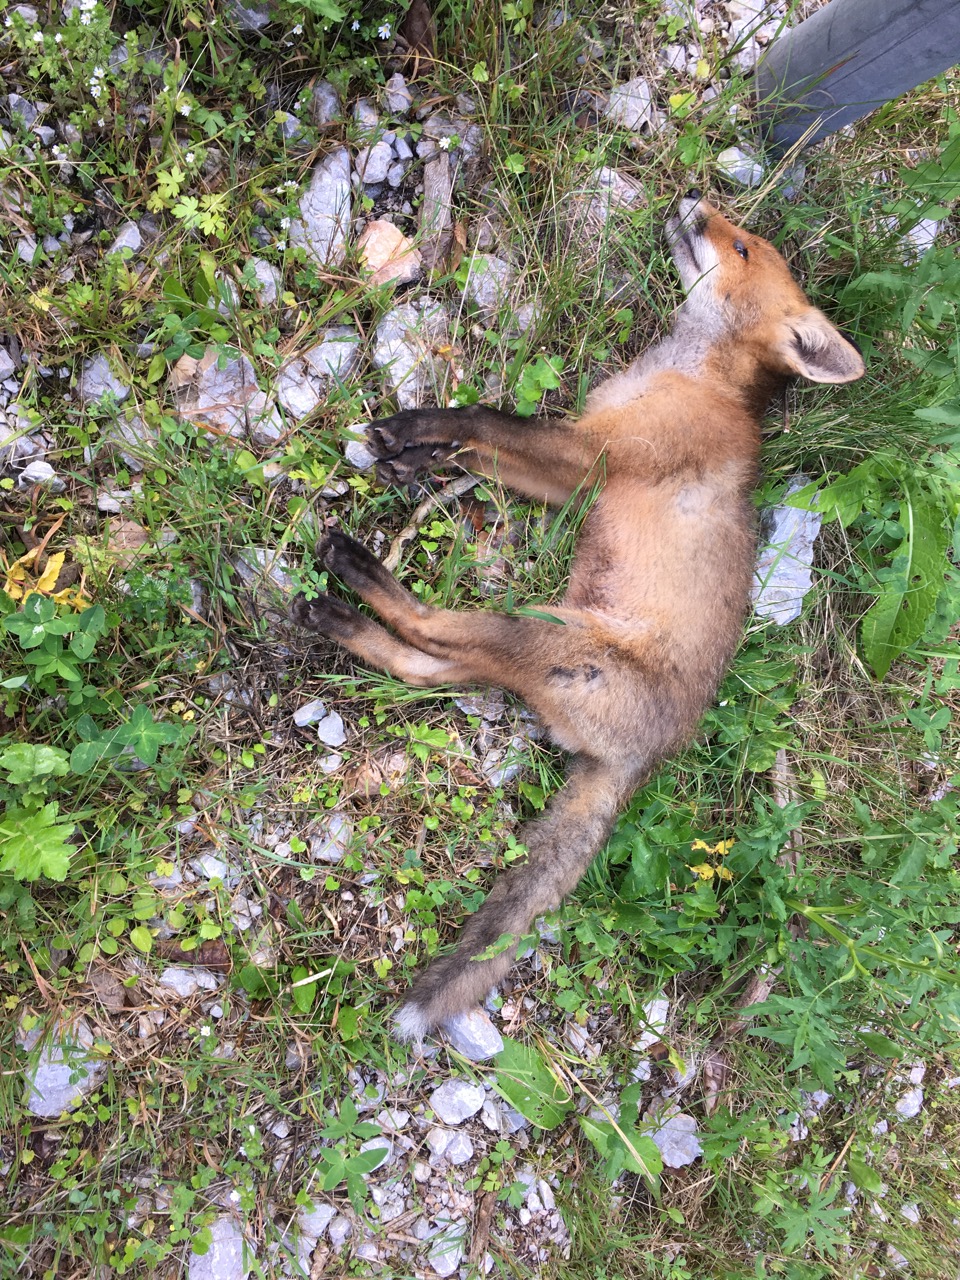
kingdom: Animalia
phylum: Chordata
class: Mammalia
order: Carnivora
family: Canidae
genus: Vulpes
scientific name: Vulpes vulpes
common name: Red fox
